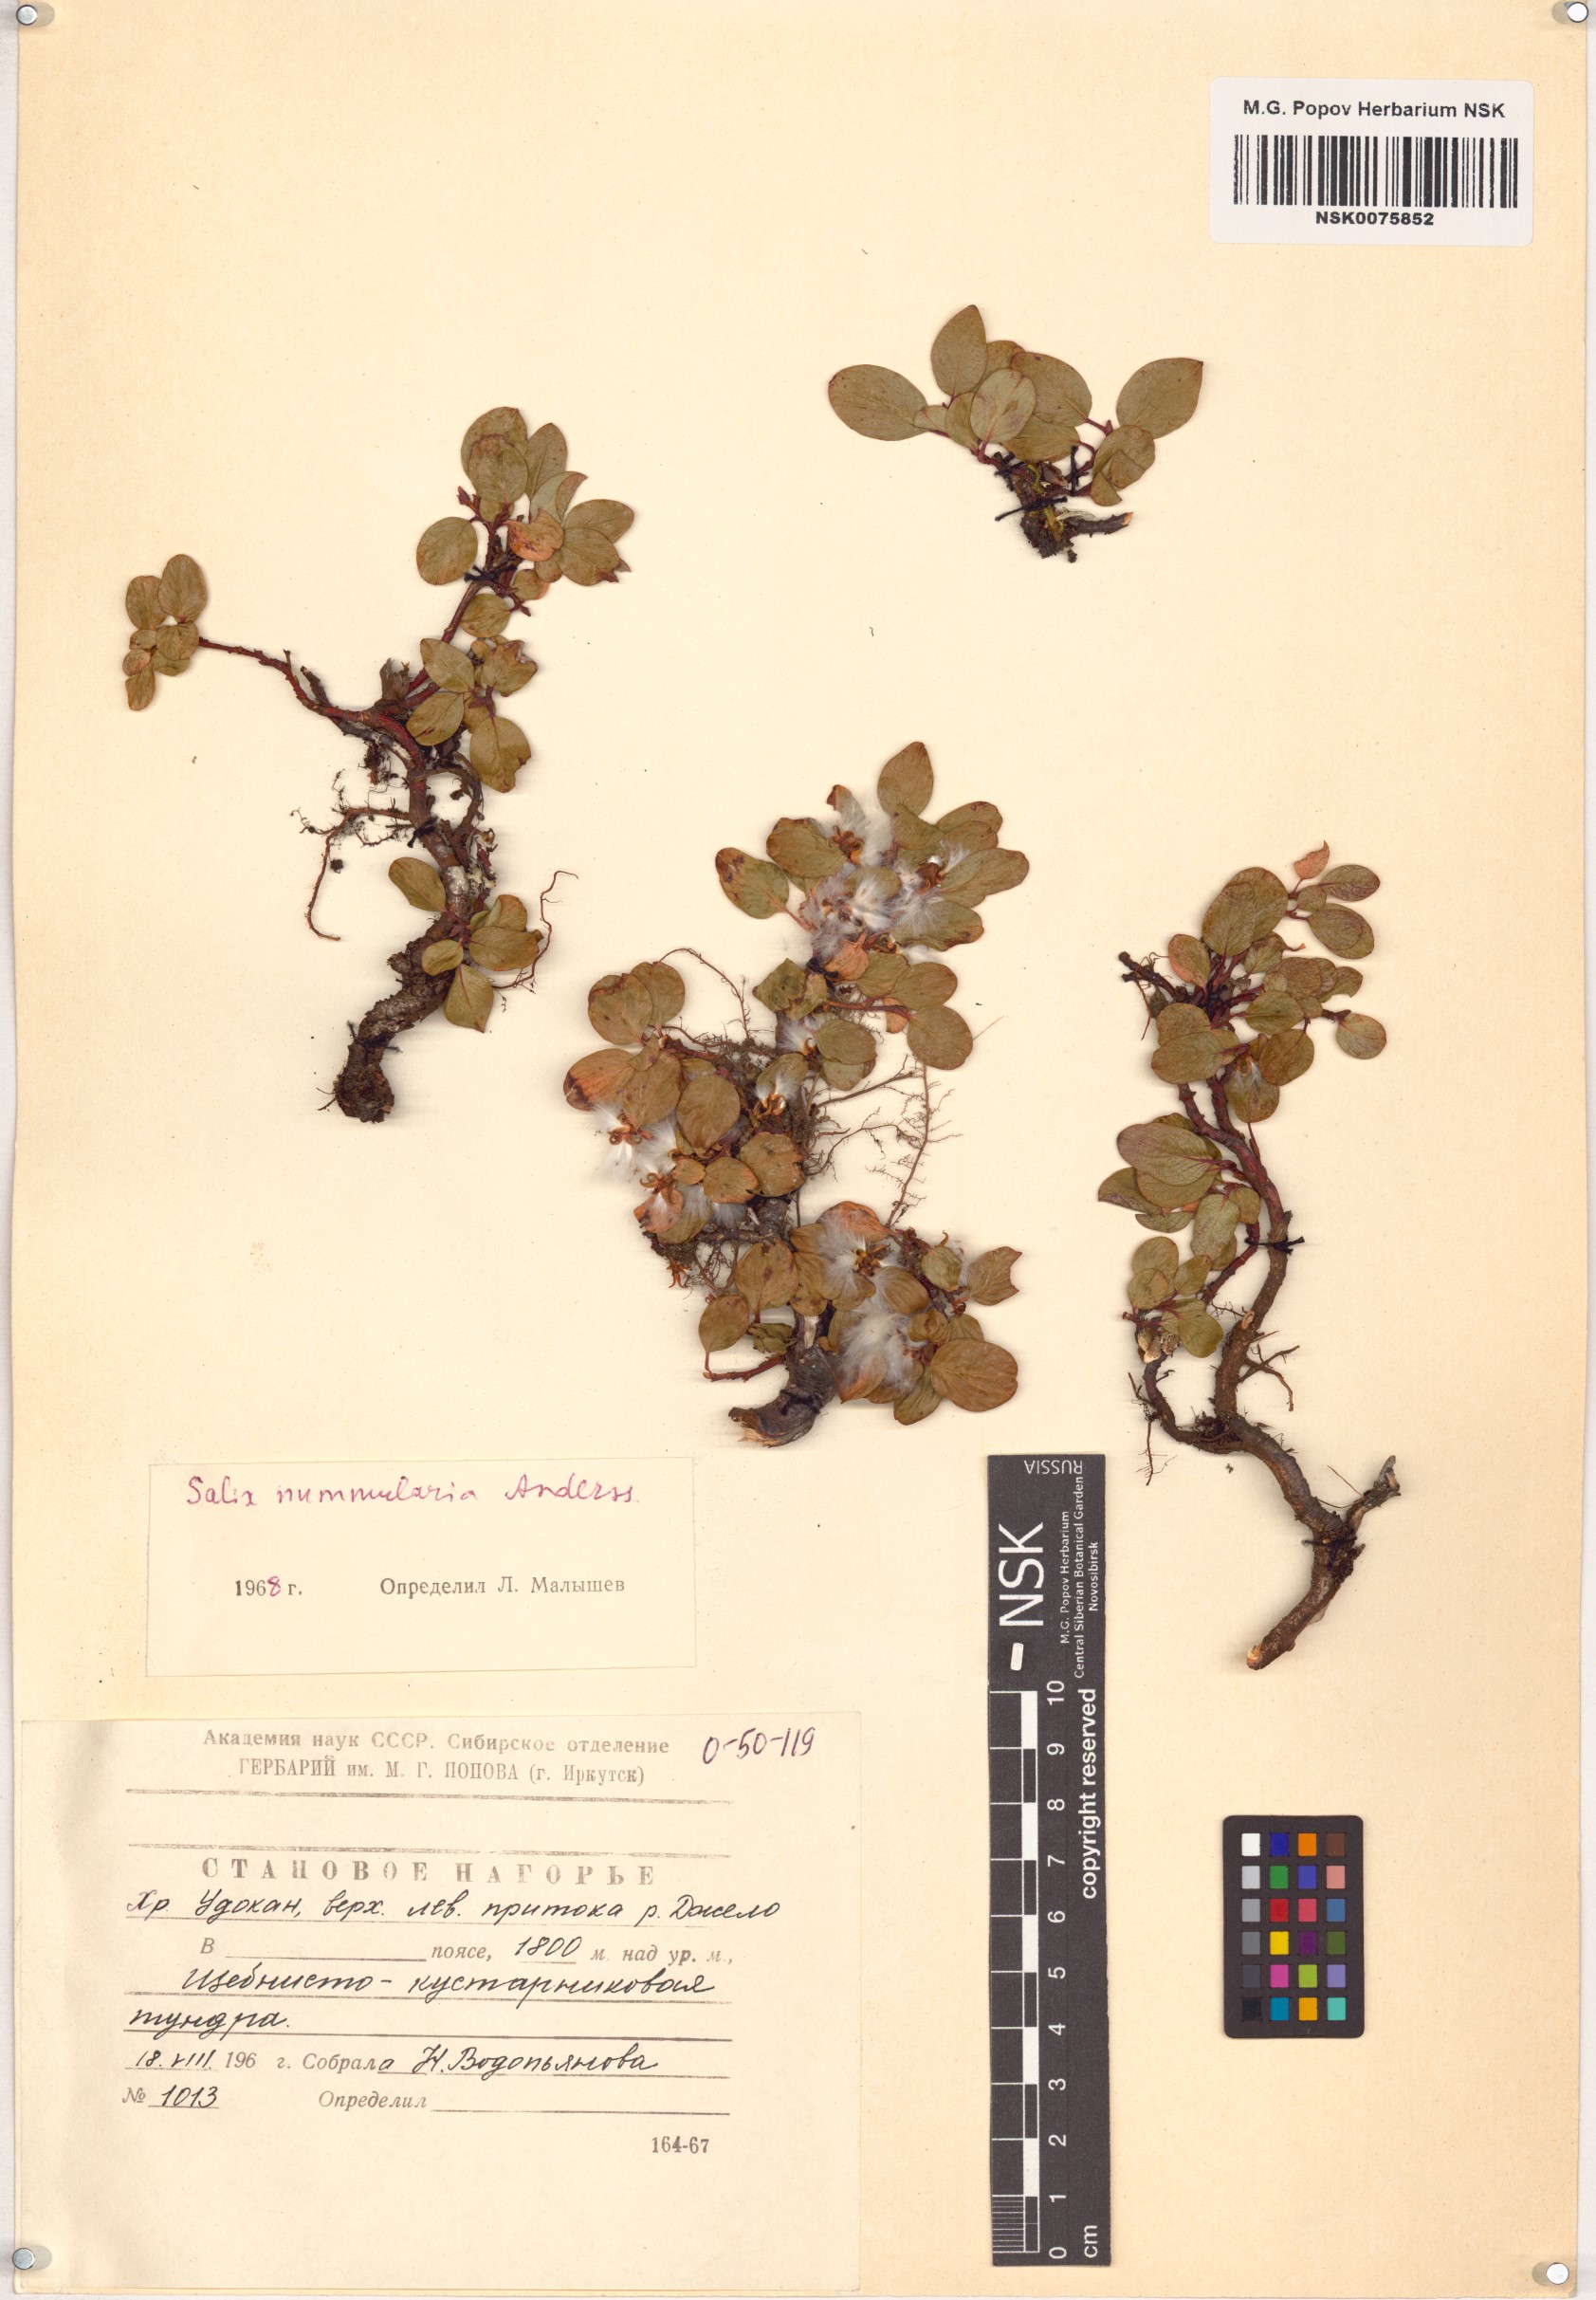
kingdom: Plantae
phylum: Tracheophyta
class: Magnoliopsida
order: Malpighiales
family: Salicaceae
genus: Salix
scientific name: Salix nummularia
